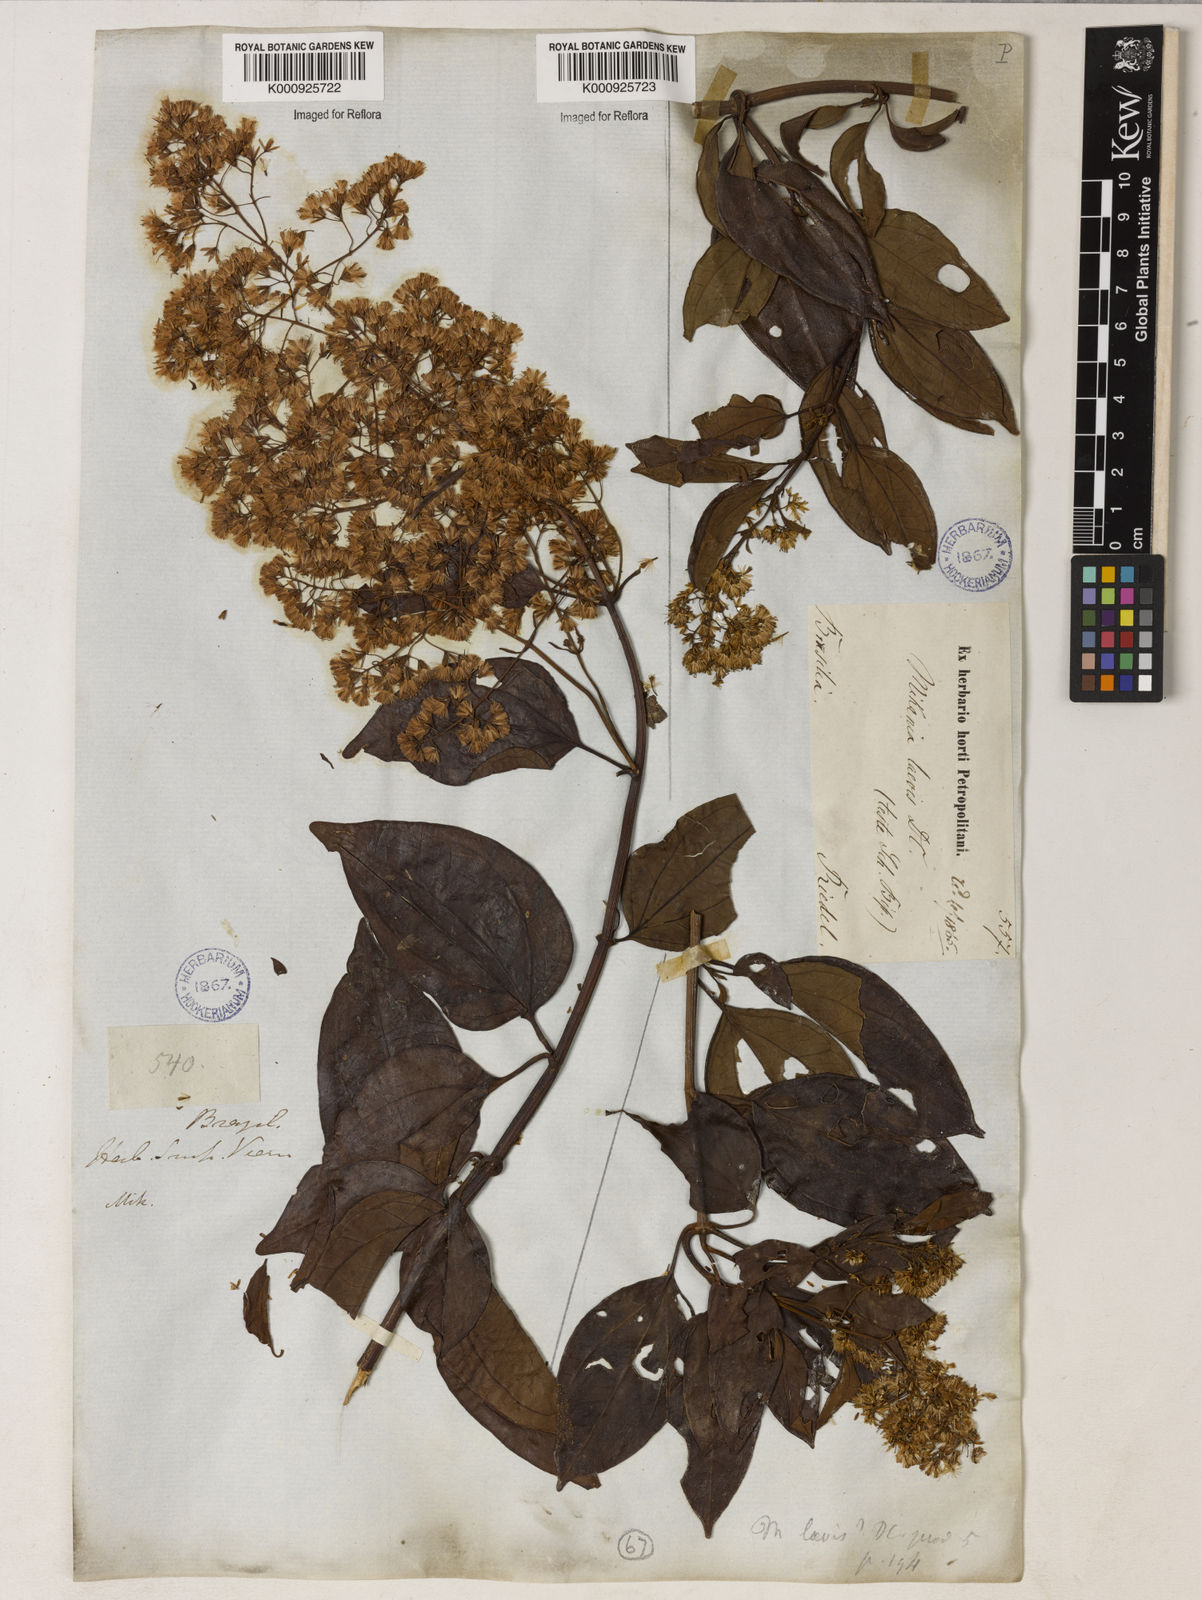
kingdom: Plantae
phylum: Tracheophyta
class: Magnoliopsida
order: Asterales
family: Asteraceae
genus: Mikania
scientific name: Mikania trinervis
